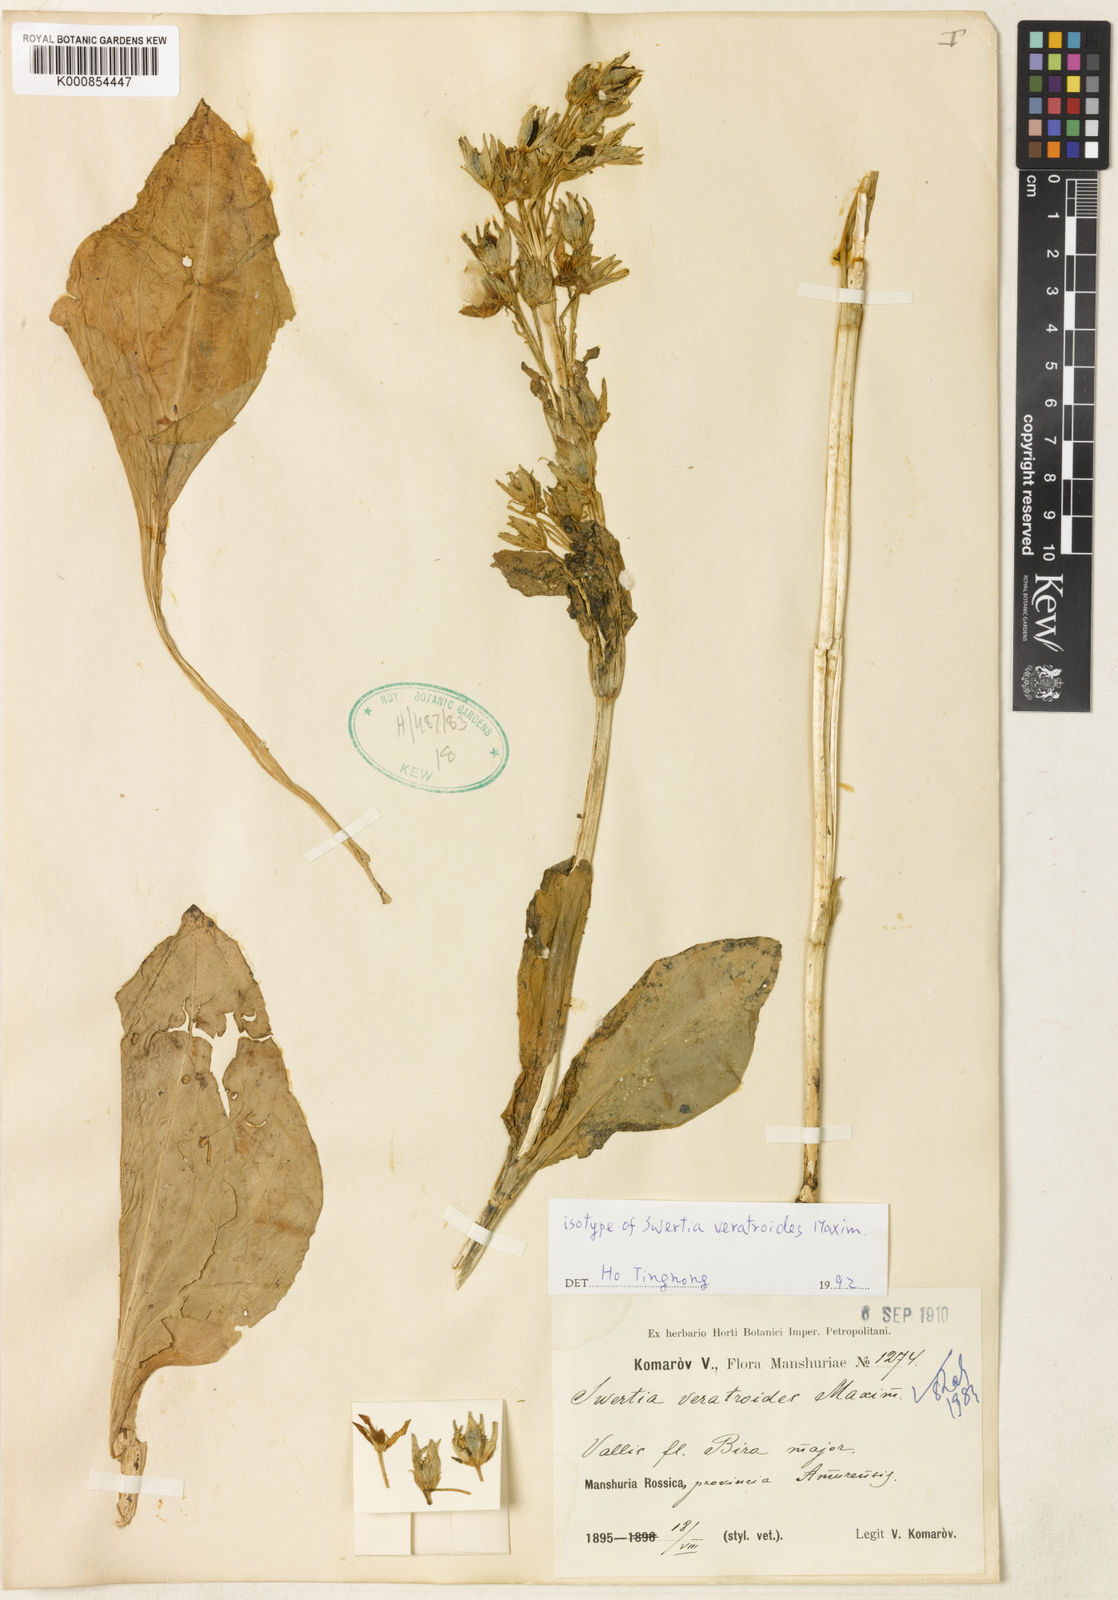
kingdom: Plantae
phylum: Tracheophyta
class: Magnoliopsida
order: Gentianales
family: Gentianaceae
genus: Swertia
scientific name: Swertia veratroides
